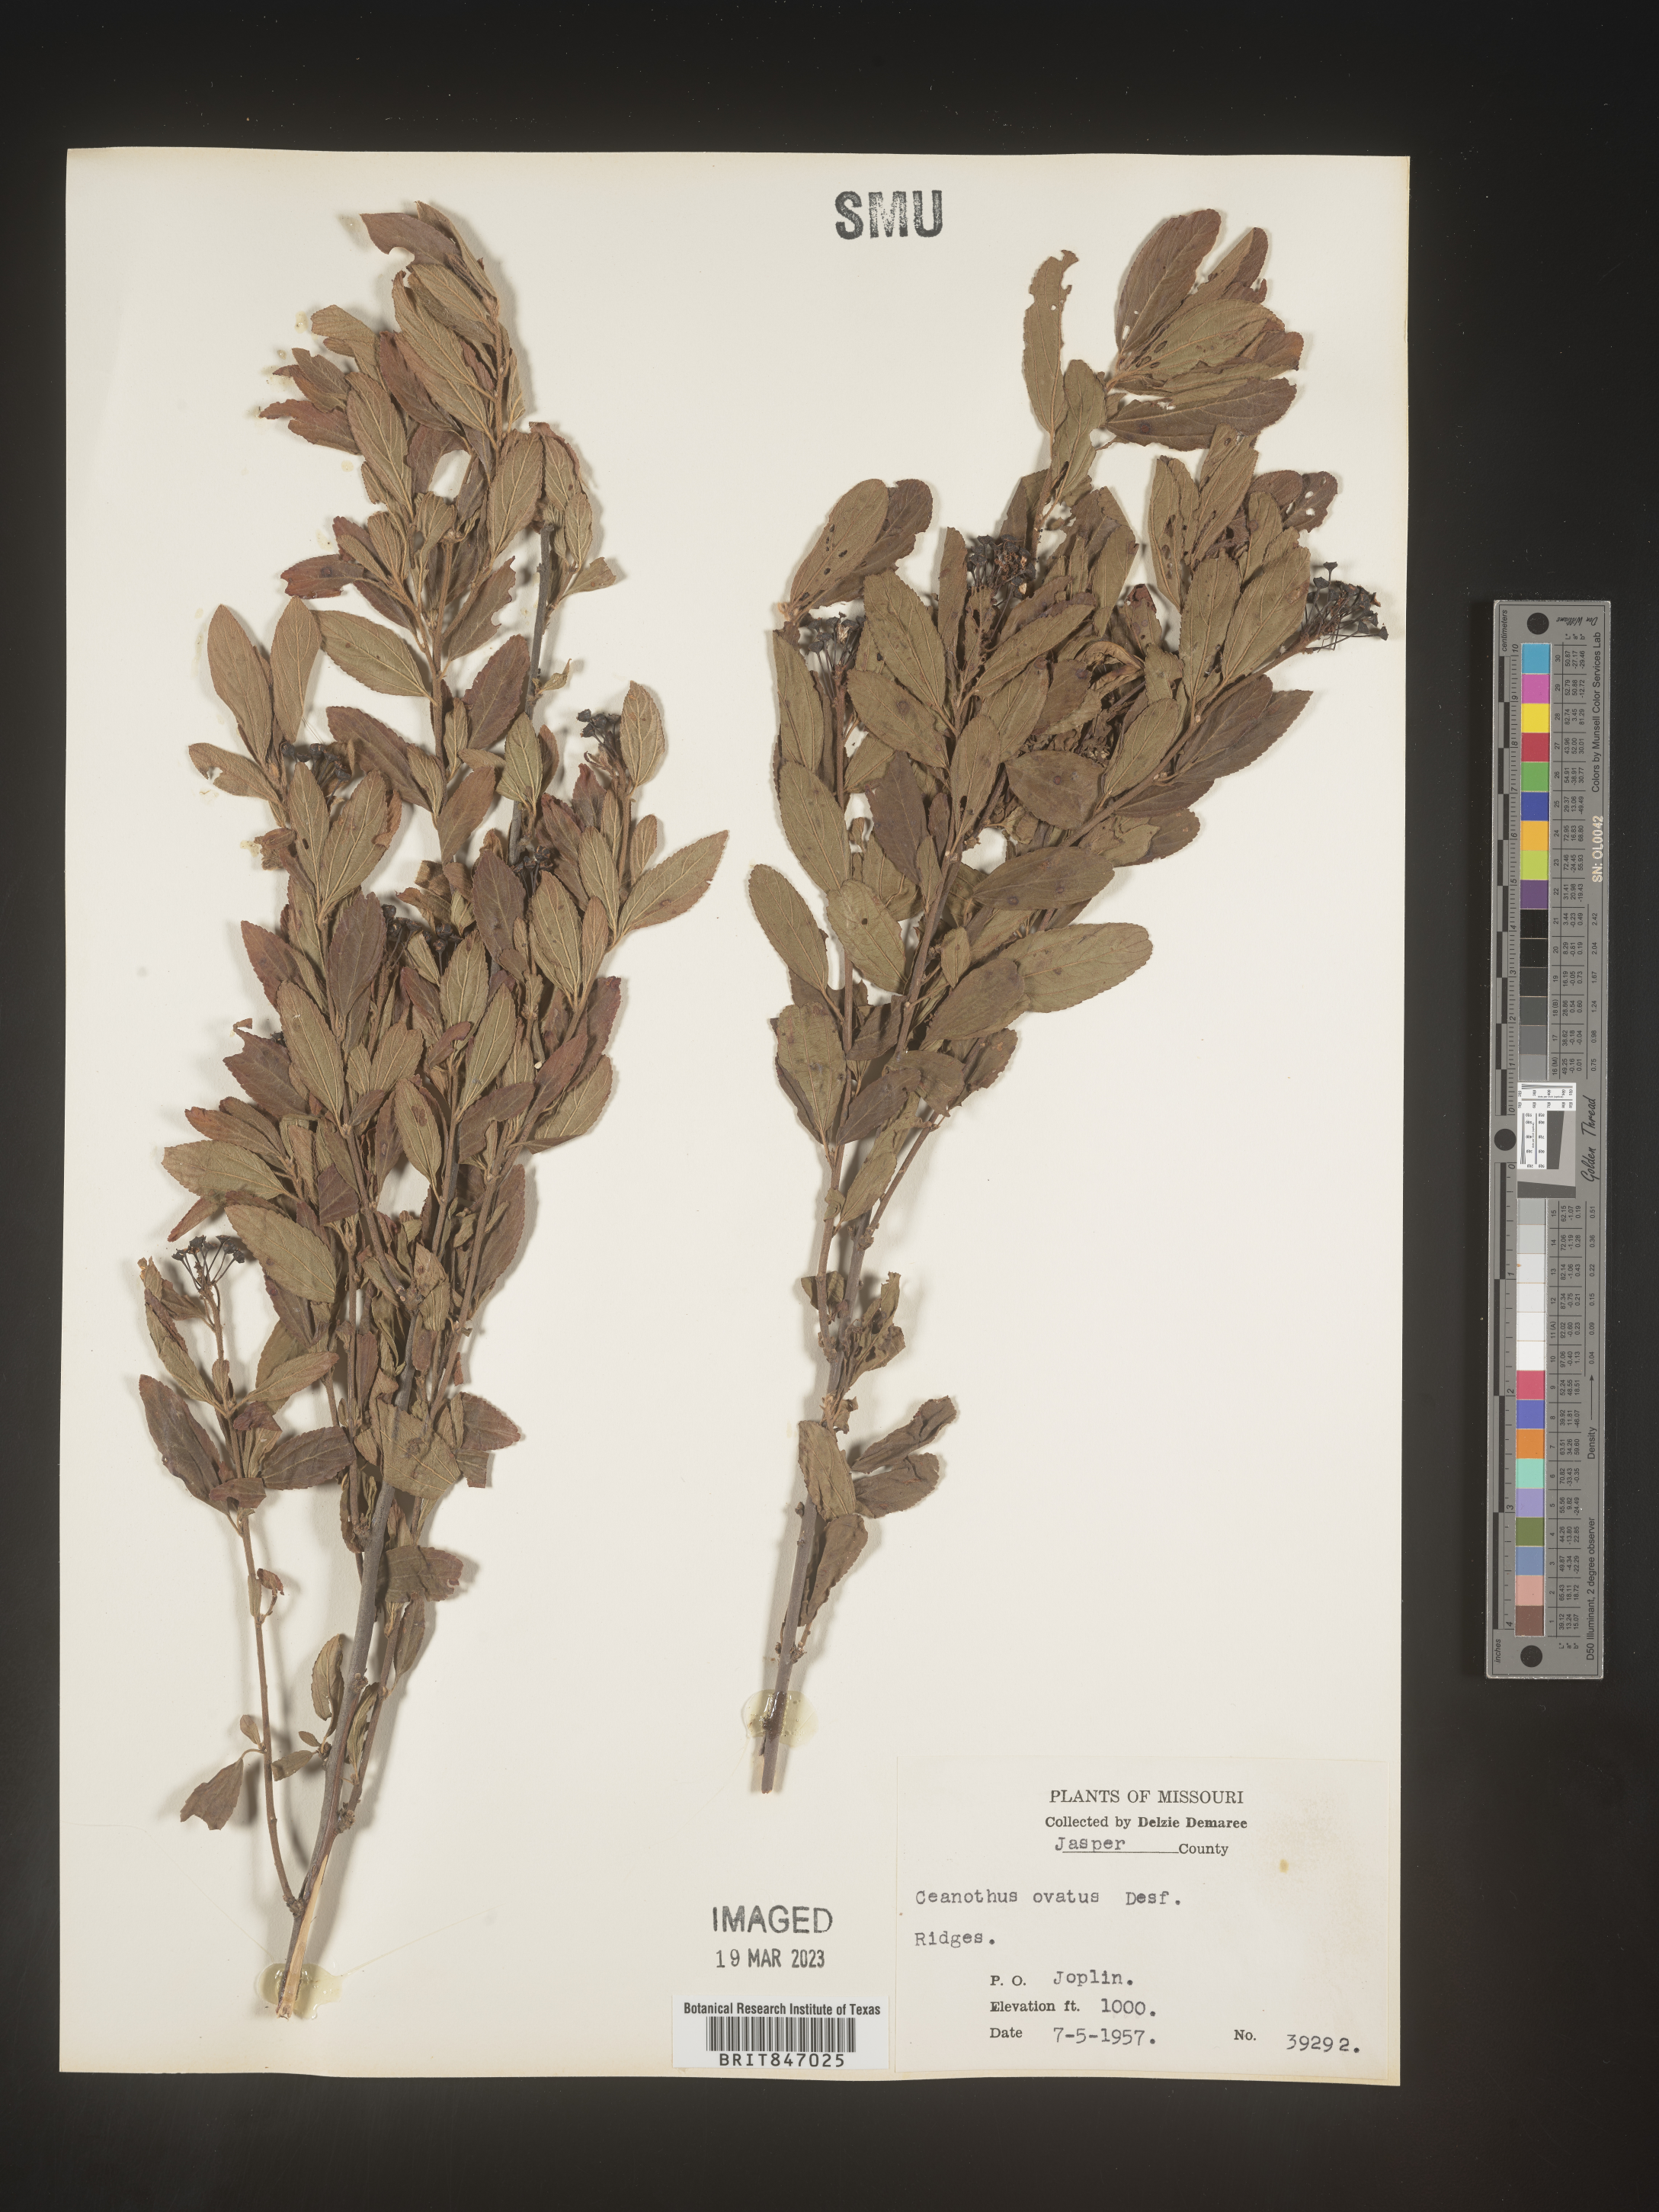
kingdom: Plantae
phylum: Tracheophyta
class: Magnoliopsida
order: Rosales
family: Rhamnaceae
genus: Ceanothus
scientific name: Ceanothus herbaceus
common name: Inland ceanothus
